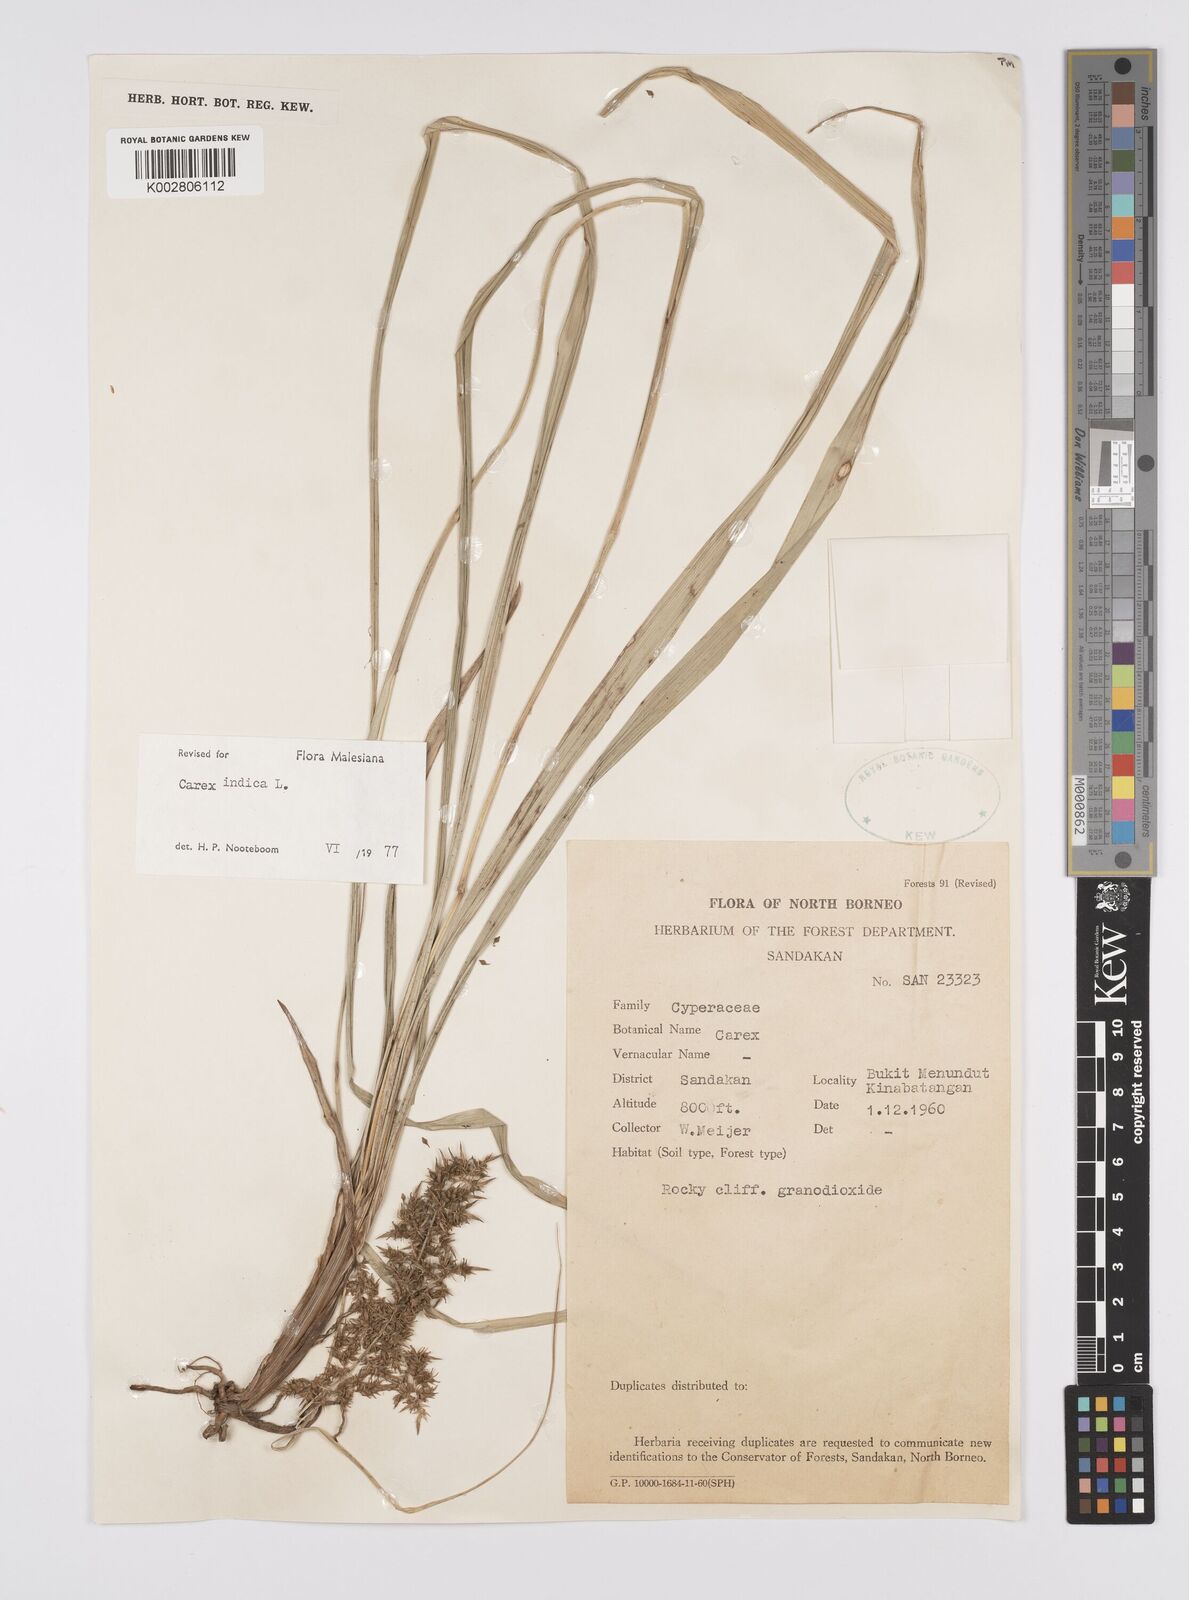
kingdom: Plantae
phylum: Tracheophyta
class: Liliopsida
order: Poales
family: Cyperaceae
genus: Carex
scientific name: Carex indica
